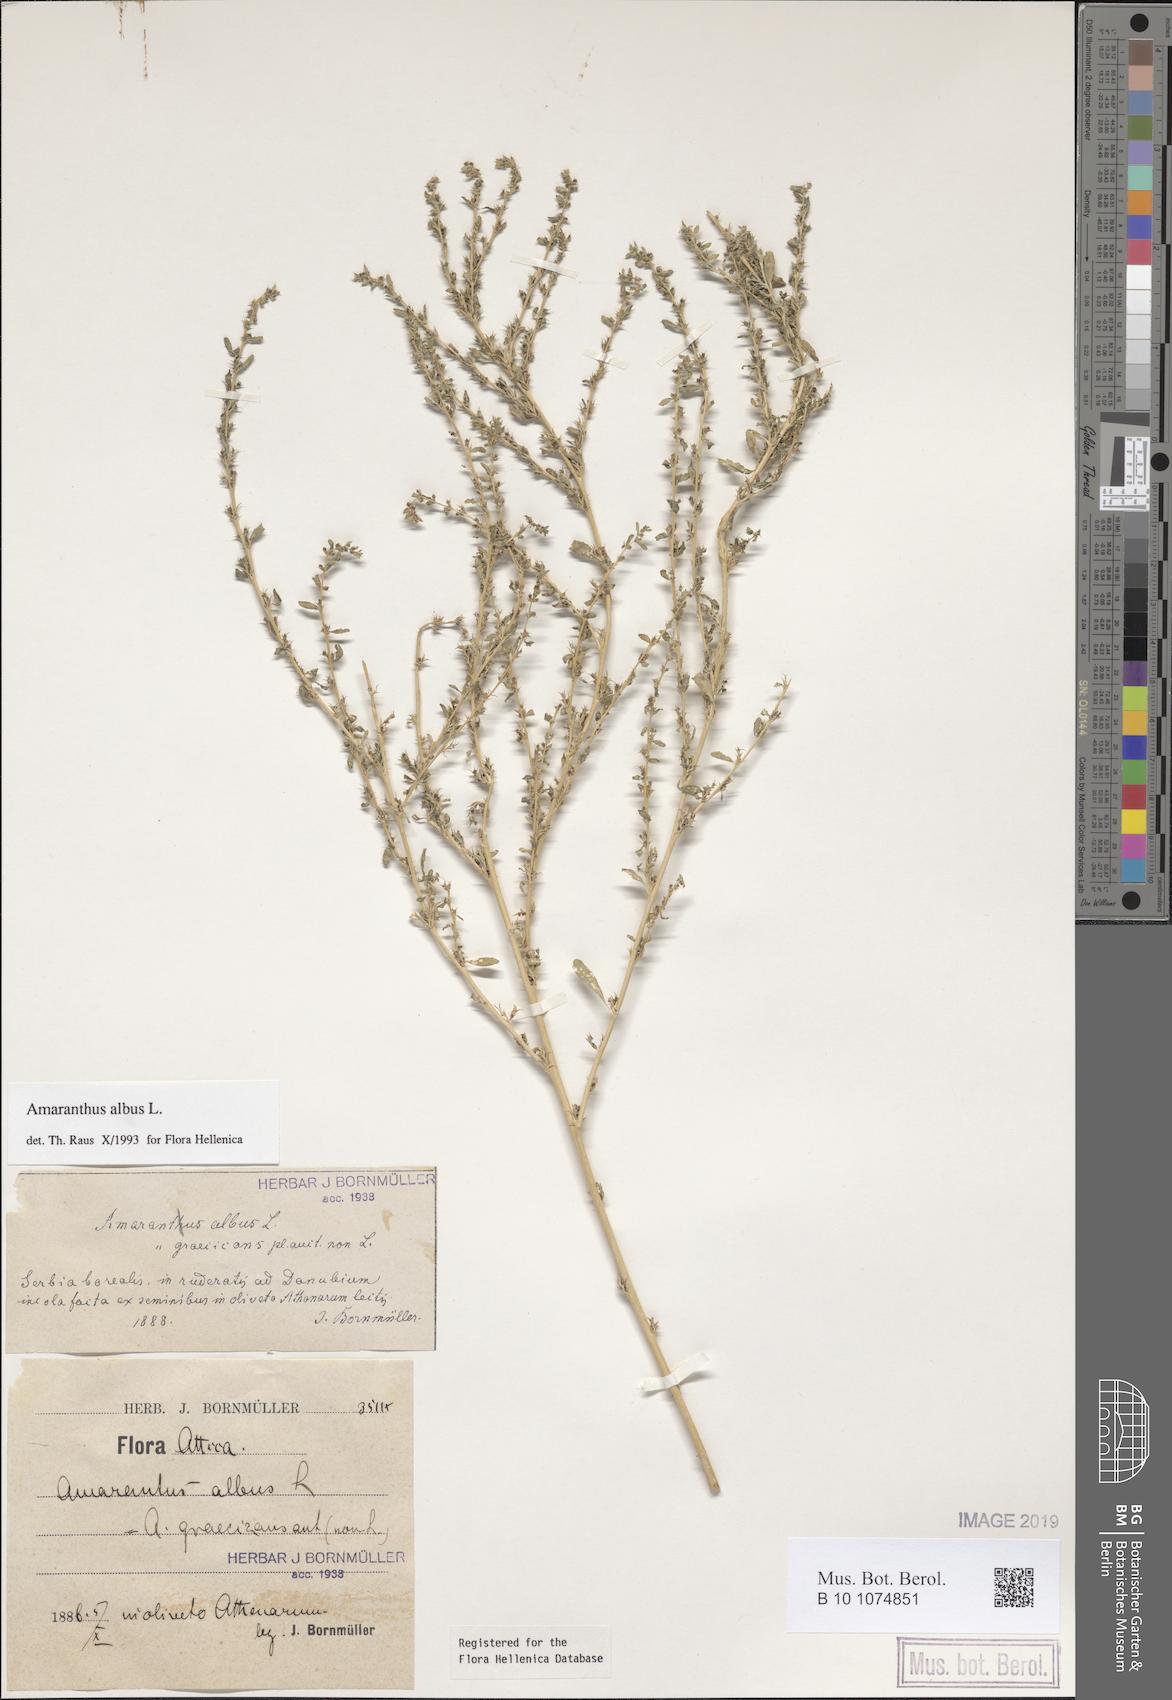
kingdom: Plantae
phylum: Tracheophyta
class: Magnoliopsida
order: Caryophyllales
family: Amaranthaceae
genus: Amaranthus
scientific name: Amaranthus albus
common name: White pigweed
